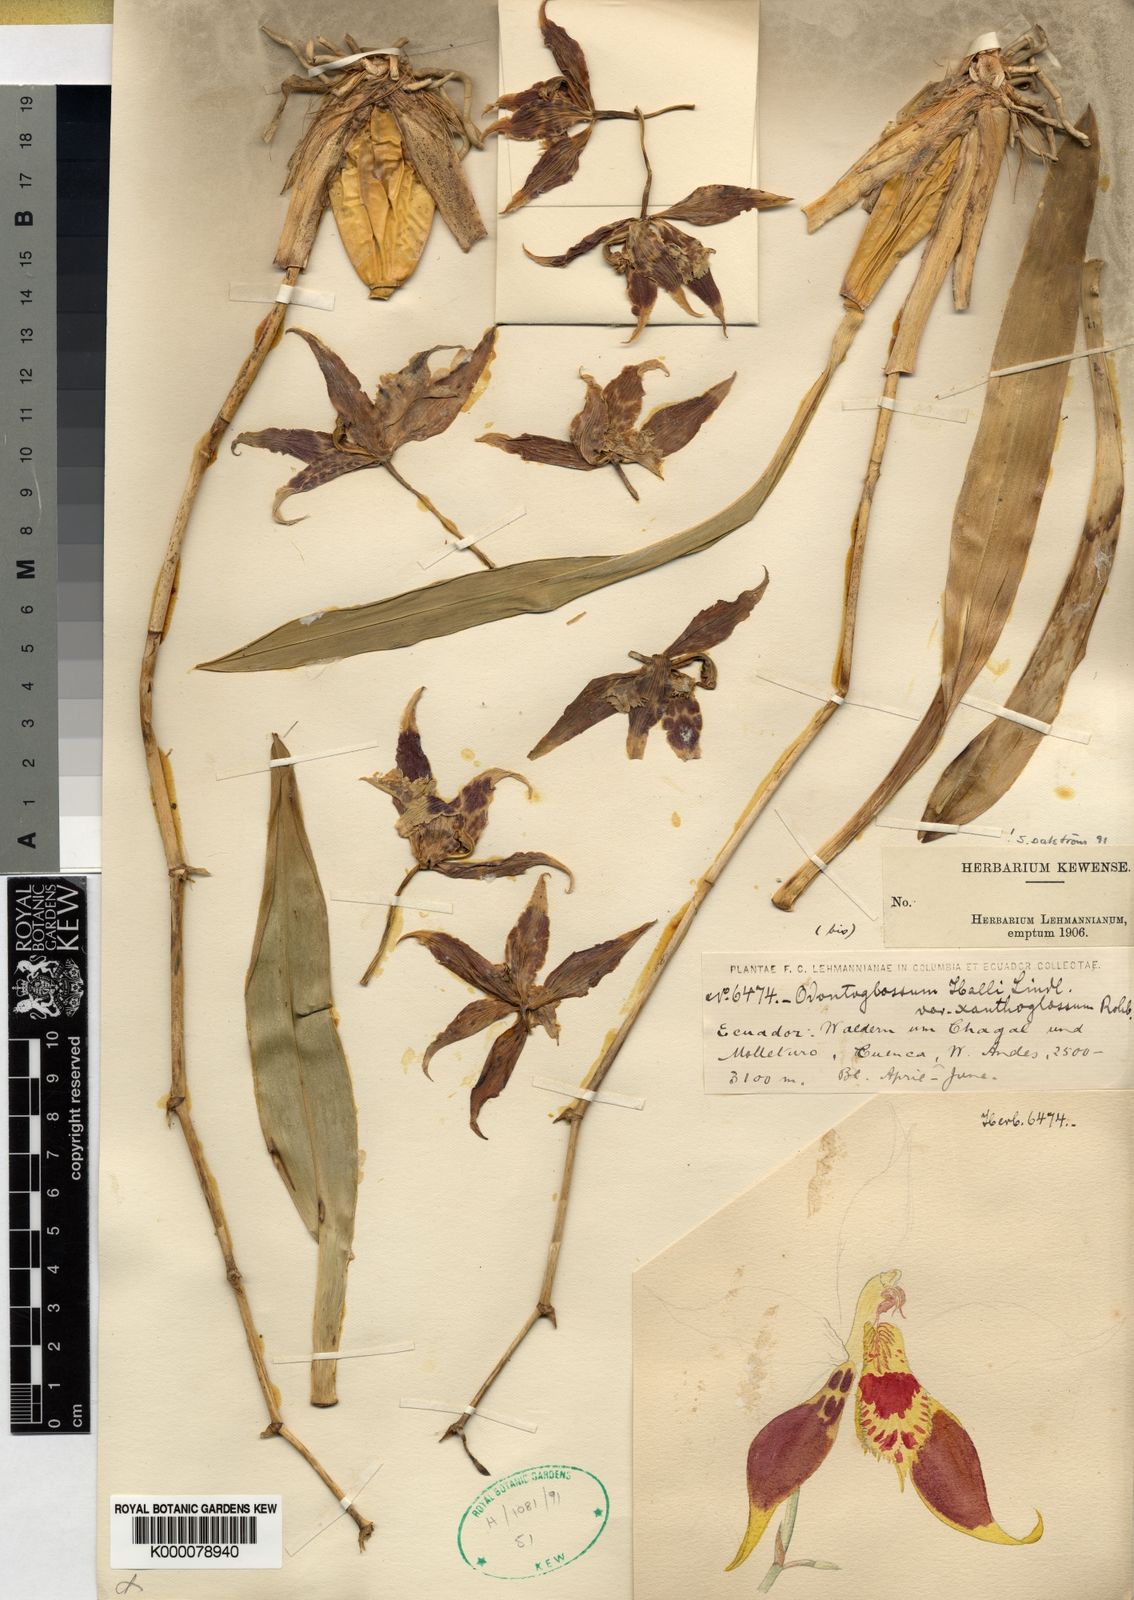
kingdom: Plantae
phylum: Tracheophyta
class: Liliopsida
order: Asparagales
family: Orchidaceae
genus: Oncidium
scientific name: Oncidium hallii
